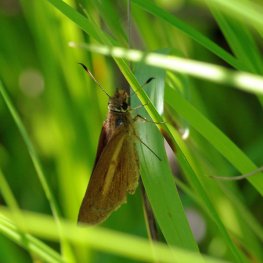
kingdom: Animalia
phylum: Arthropoda
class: Insecta
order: Lepidoptera
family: Hesperiidae
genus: Poanes
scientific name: Poanes viator
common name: Broad-winged Skipper
